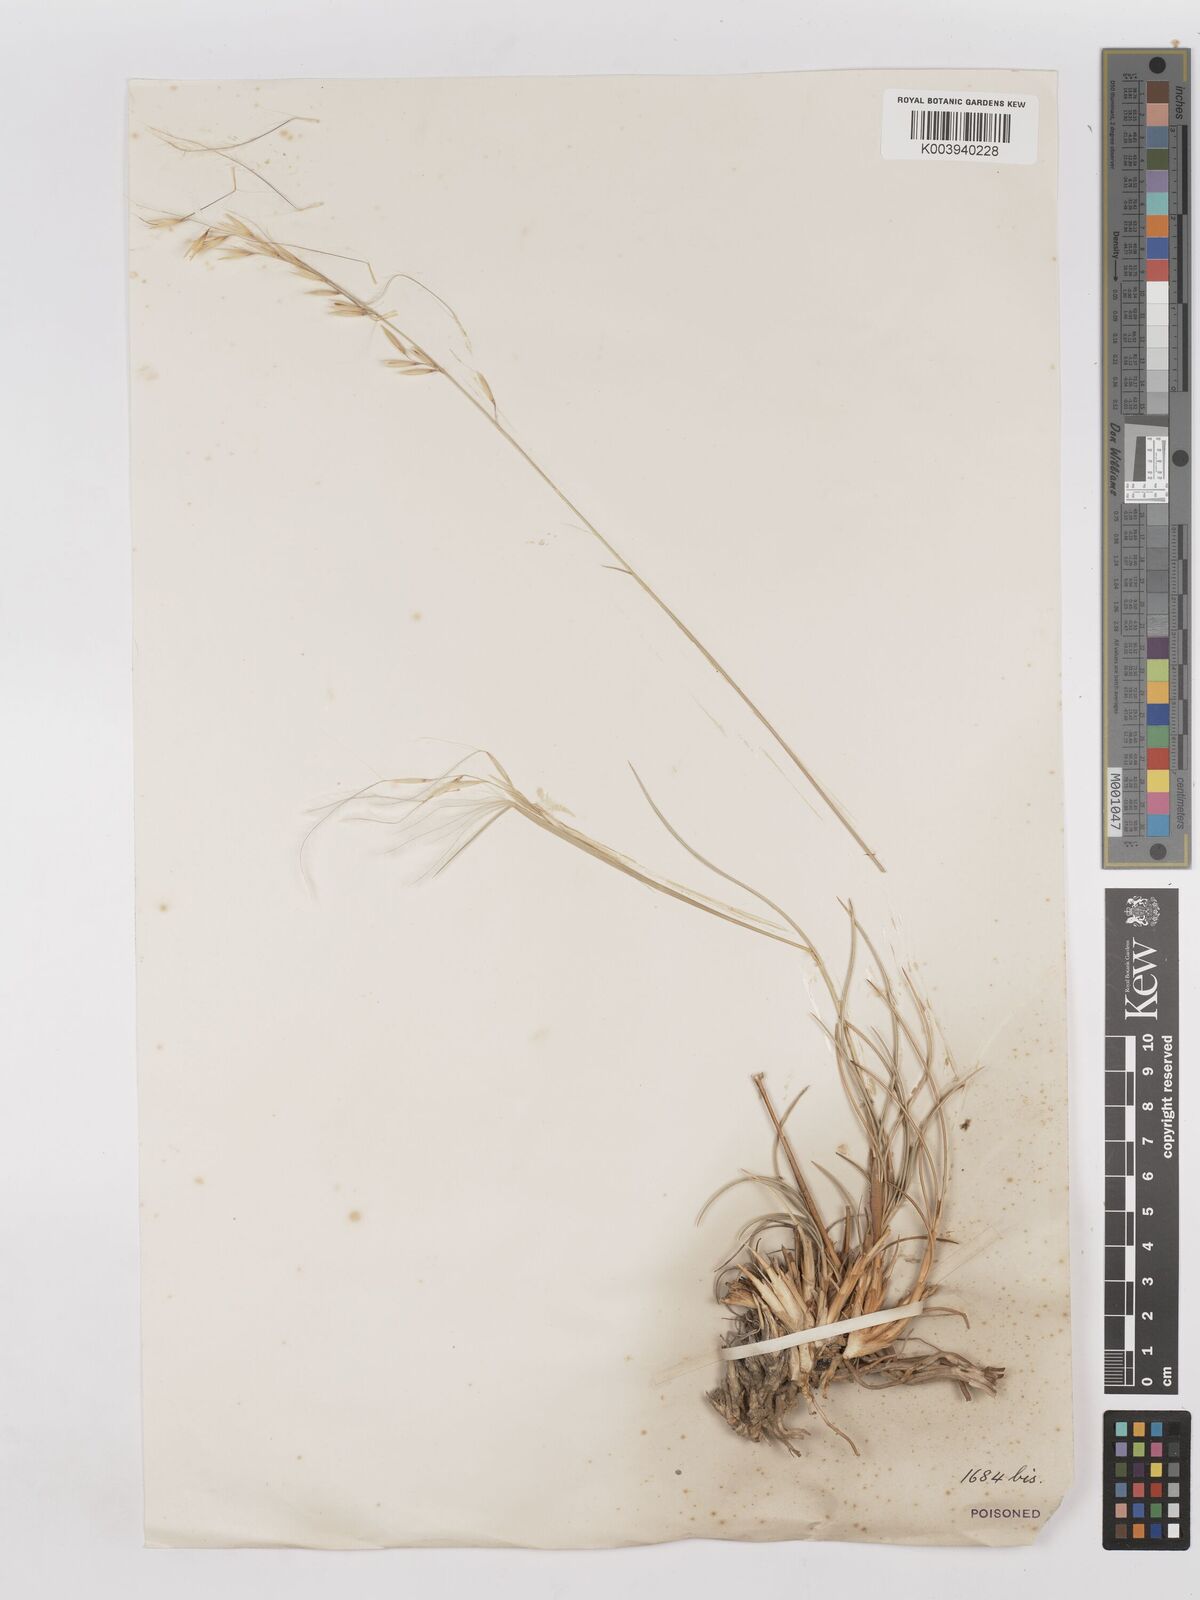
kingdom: Plantae
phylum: Tracheophyta
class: Liliopsida
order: Poales
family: Poaceae
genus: Stipagrostis
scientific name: Stipagrostis ciliata
